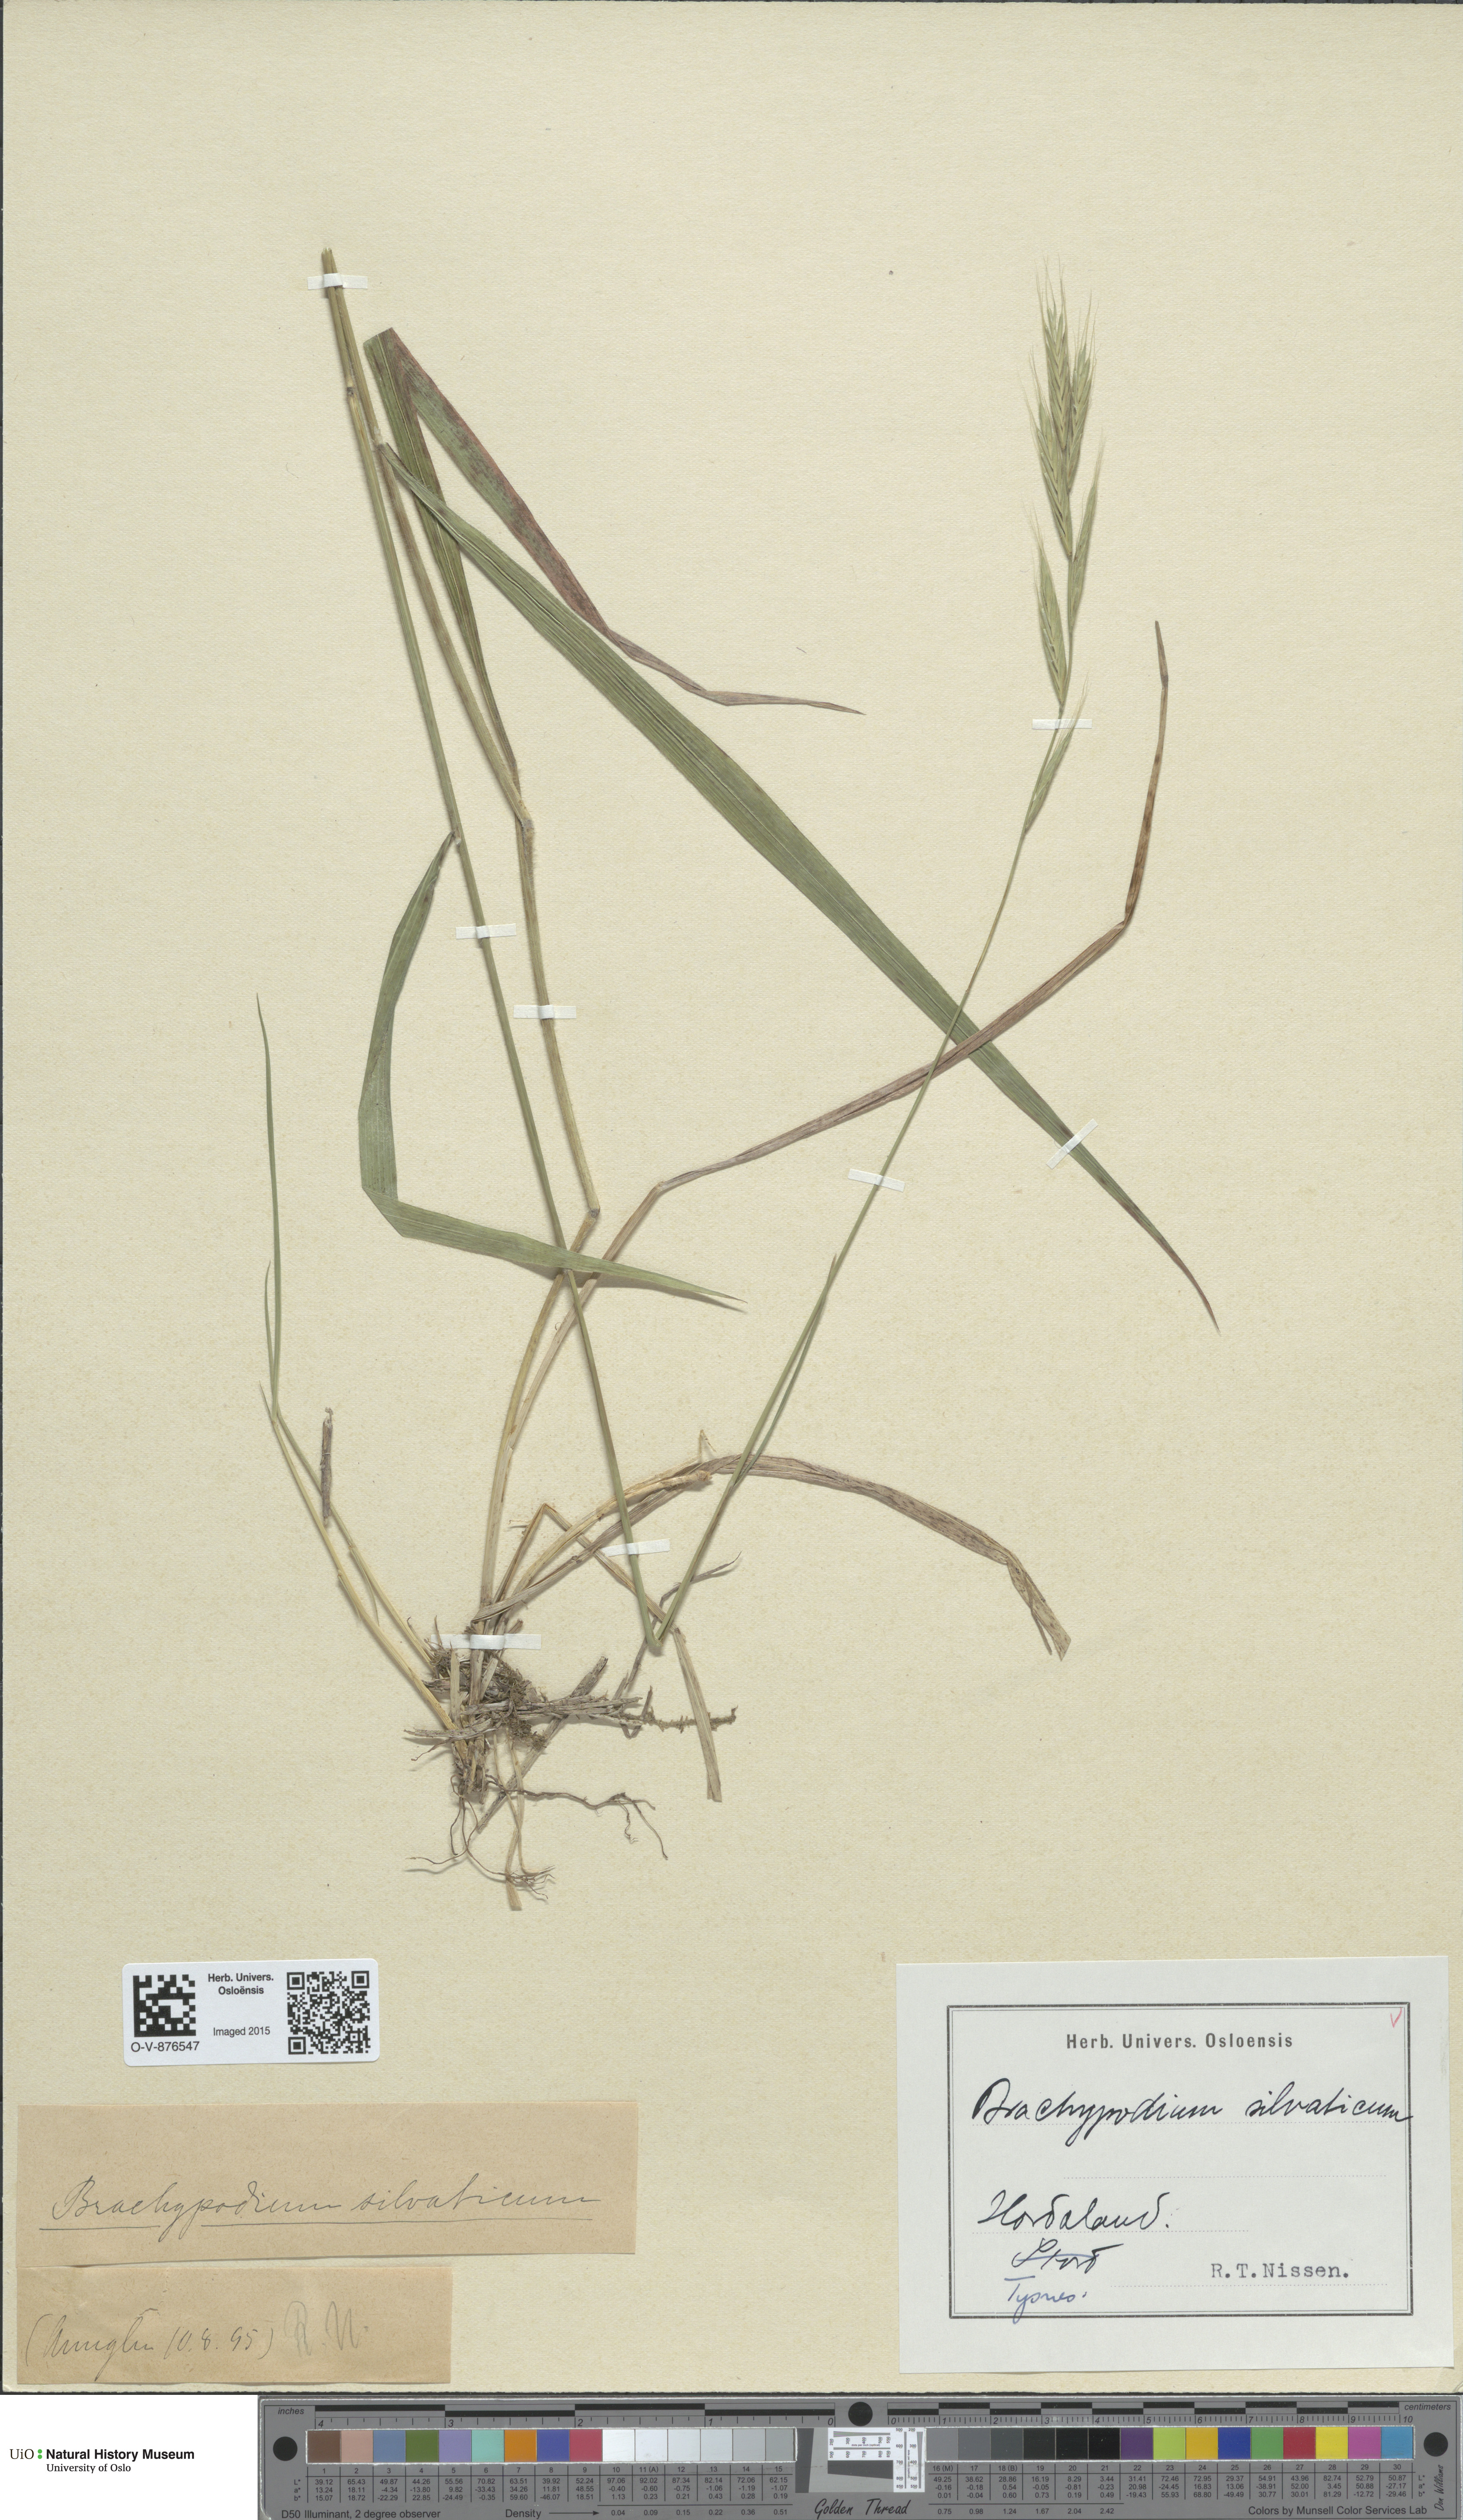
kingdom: Plantae
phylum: Tracheophyta
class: Liliopsida
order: Poales
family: Poaceae
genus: Brachypodium
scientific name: Brachypodium sylvaticum
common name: False-brome
